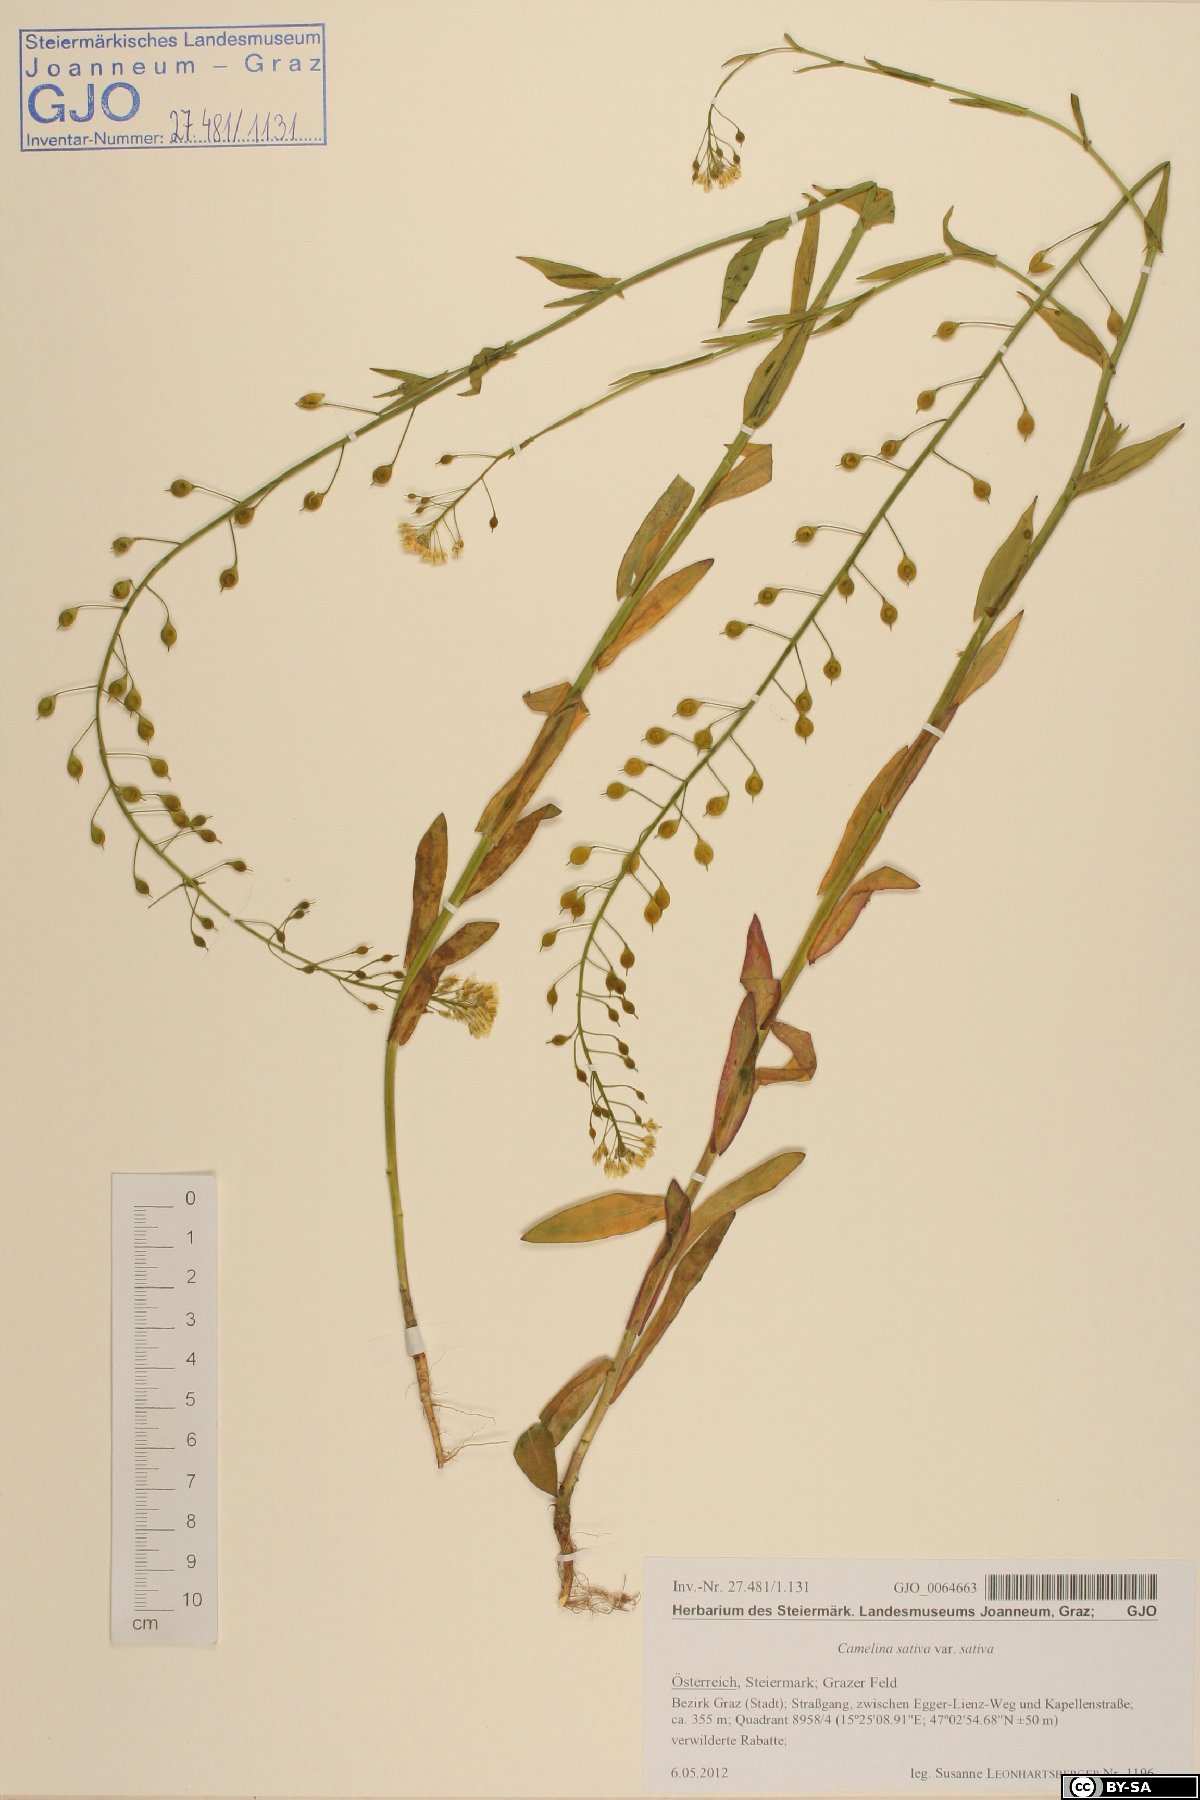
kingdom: Plantae
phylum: Tracheophyta
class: Magnoliopsida
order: Brassicales
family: Brassicaceae
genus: Camelina
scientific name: Camelina sativa
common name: Gold-of-pleasure
